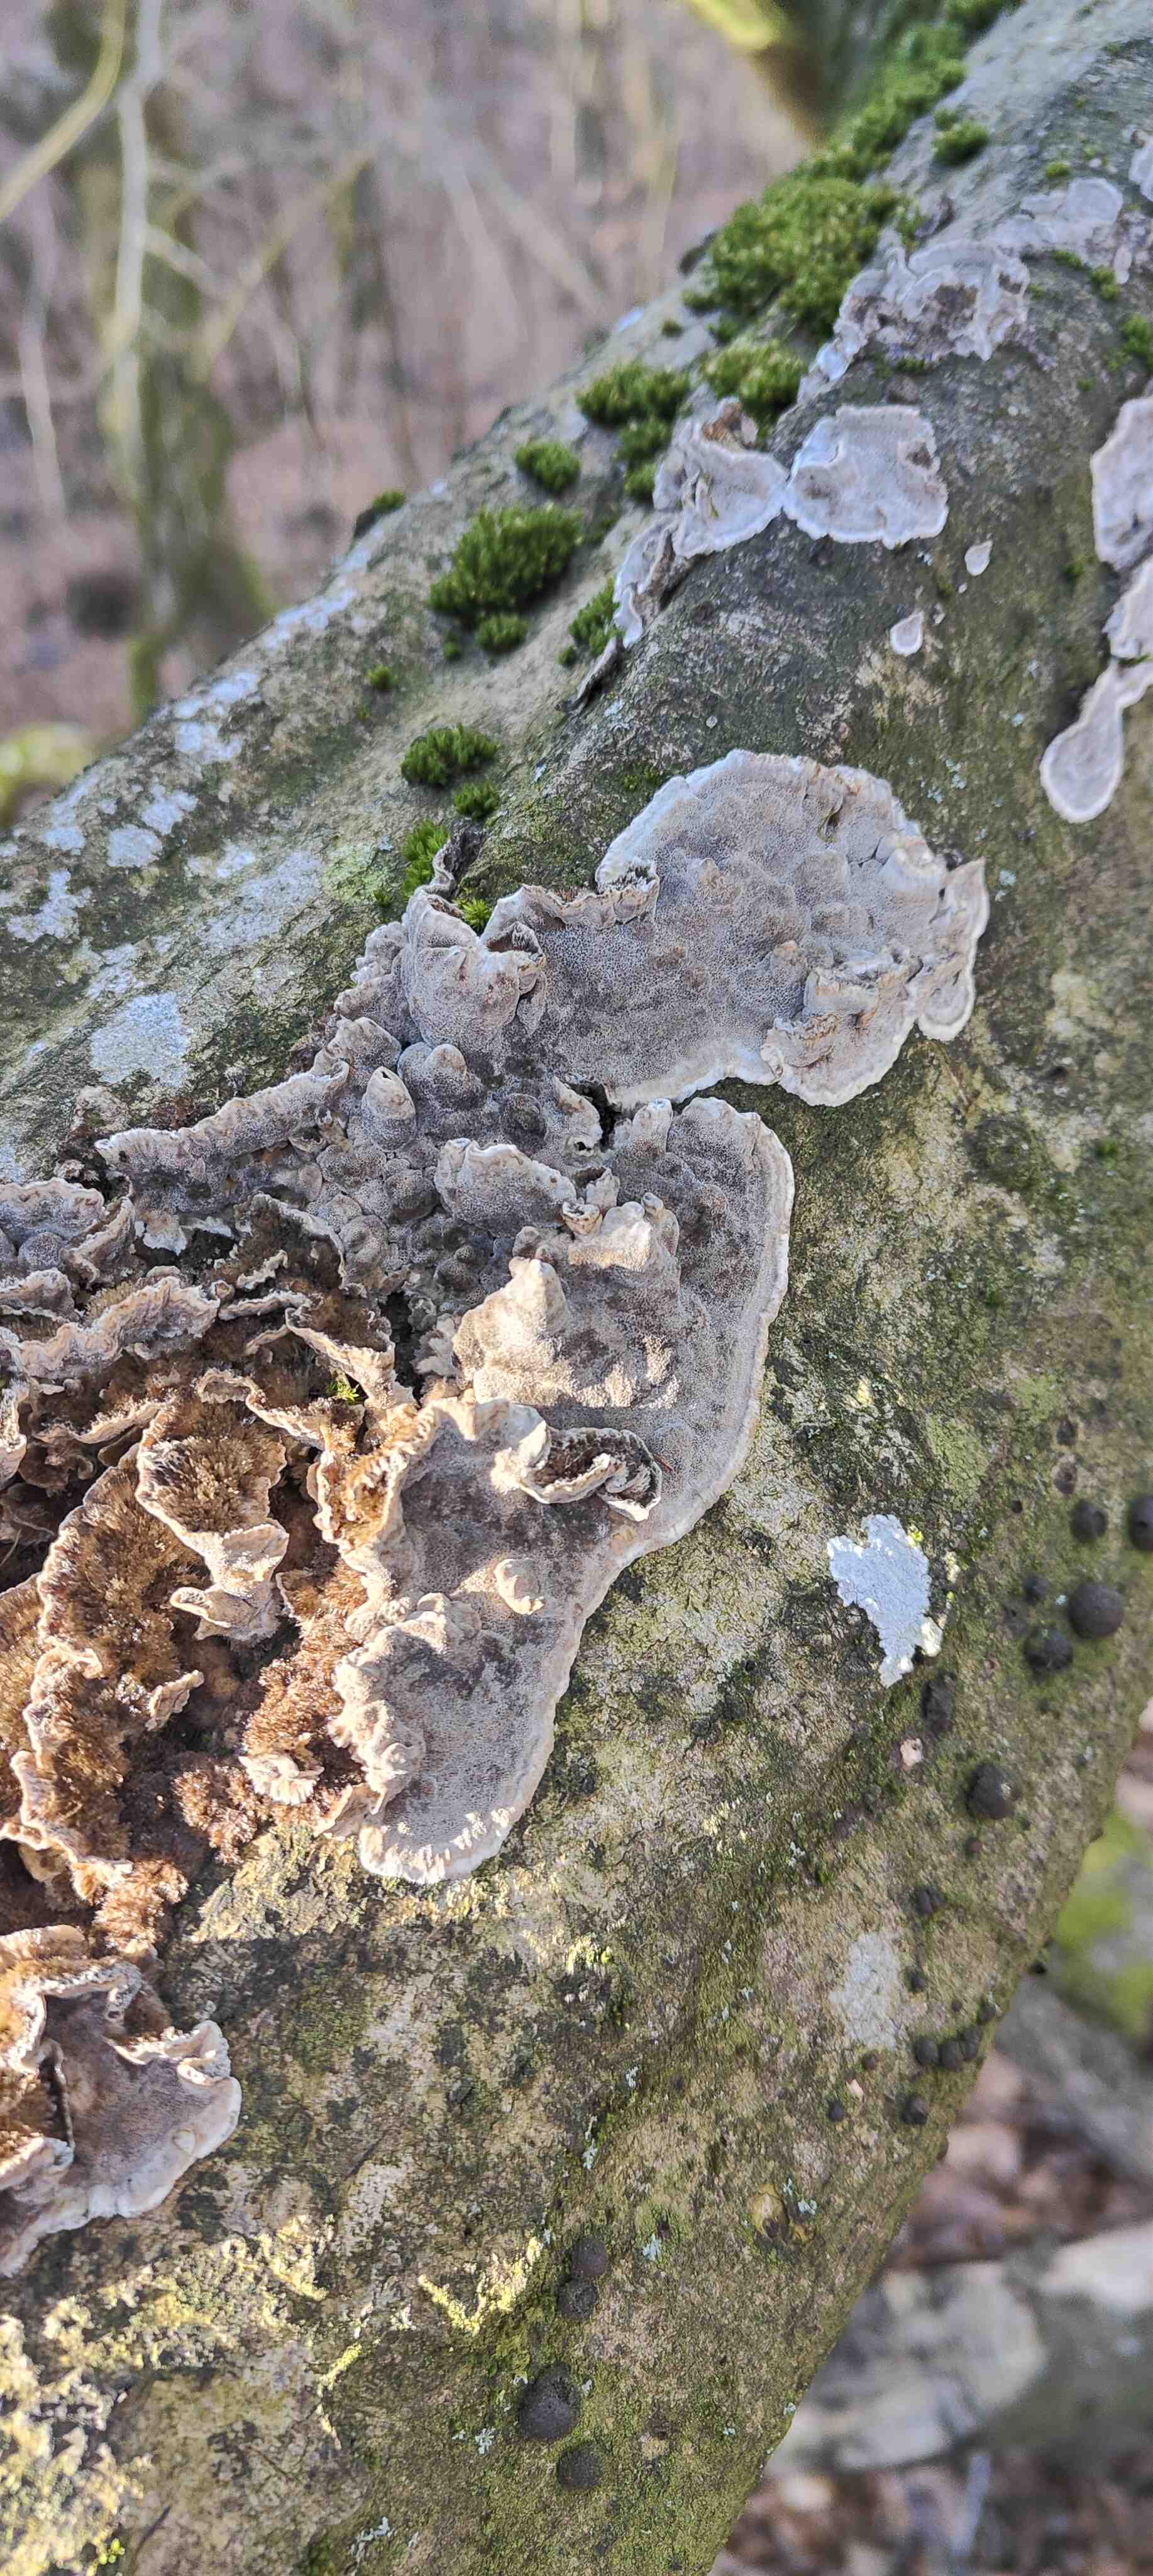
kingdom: Fungi
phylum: Basidiomycota
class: Agaricomycetes
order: Polyporales
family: Phanerochaetaceae
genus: Bjerkandera
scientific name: Bjerkandera adusta
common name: sveden sodporesvamp
